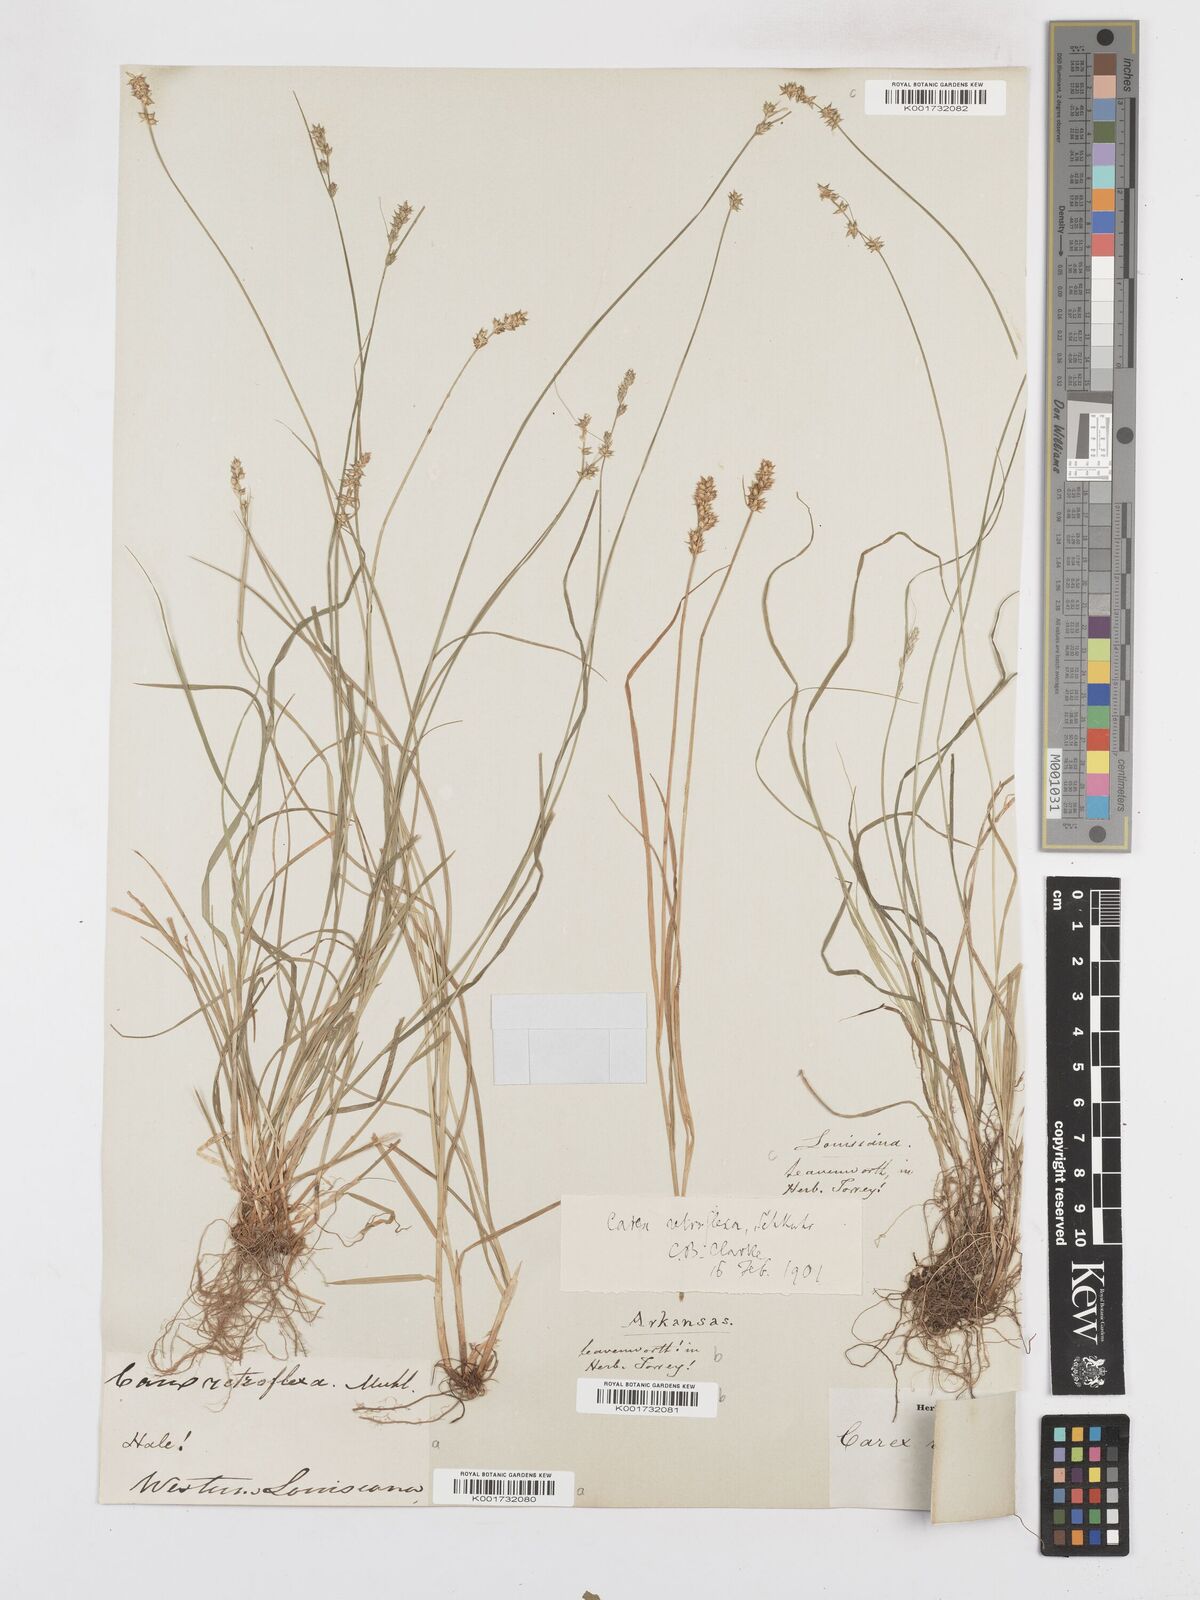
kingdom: Plantae
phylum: Tracheophyta
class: Liliopsida
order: Poales
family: Cyperaceae
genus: Carex
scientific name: Carex retroflexa
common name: Reflexed sedge
